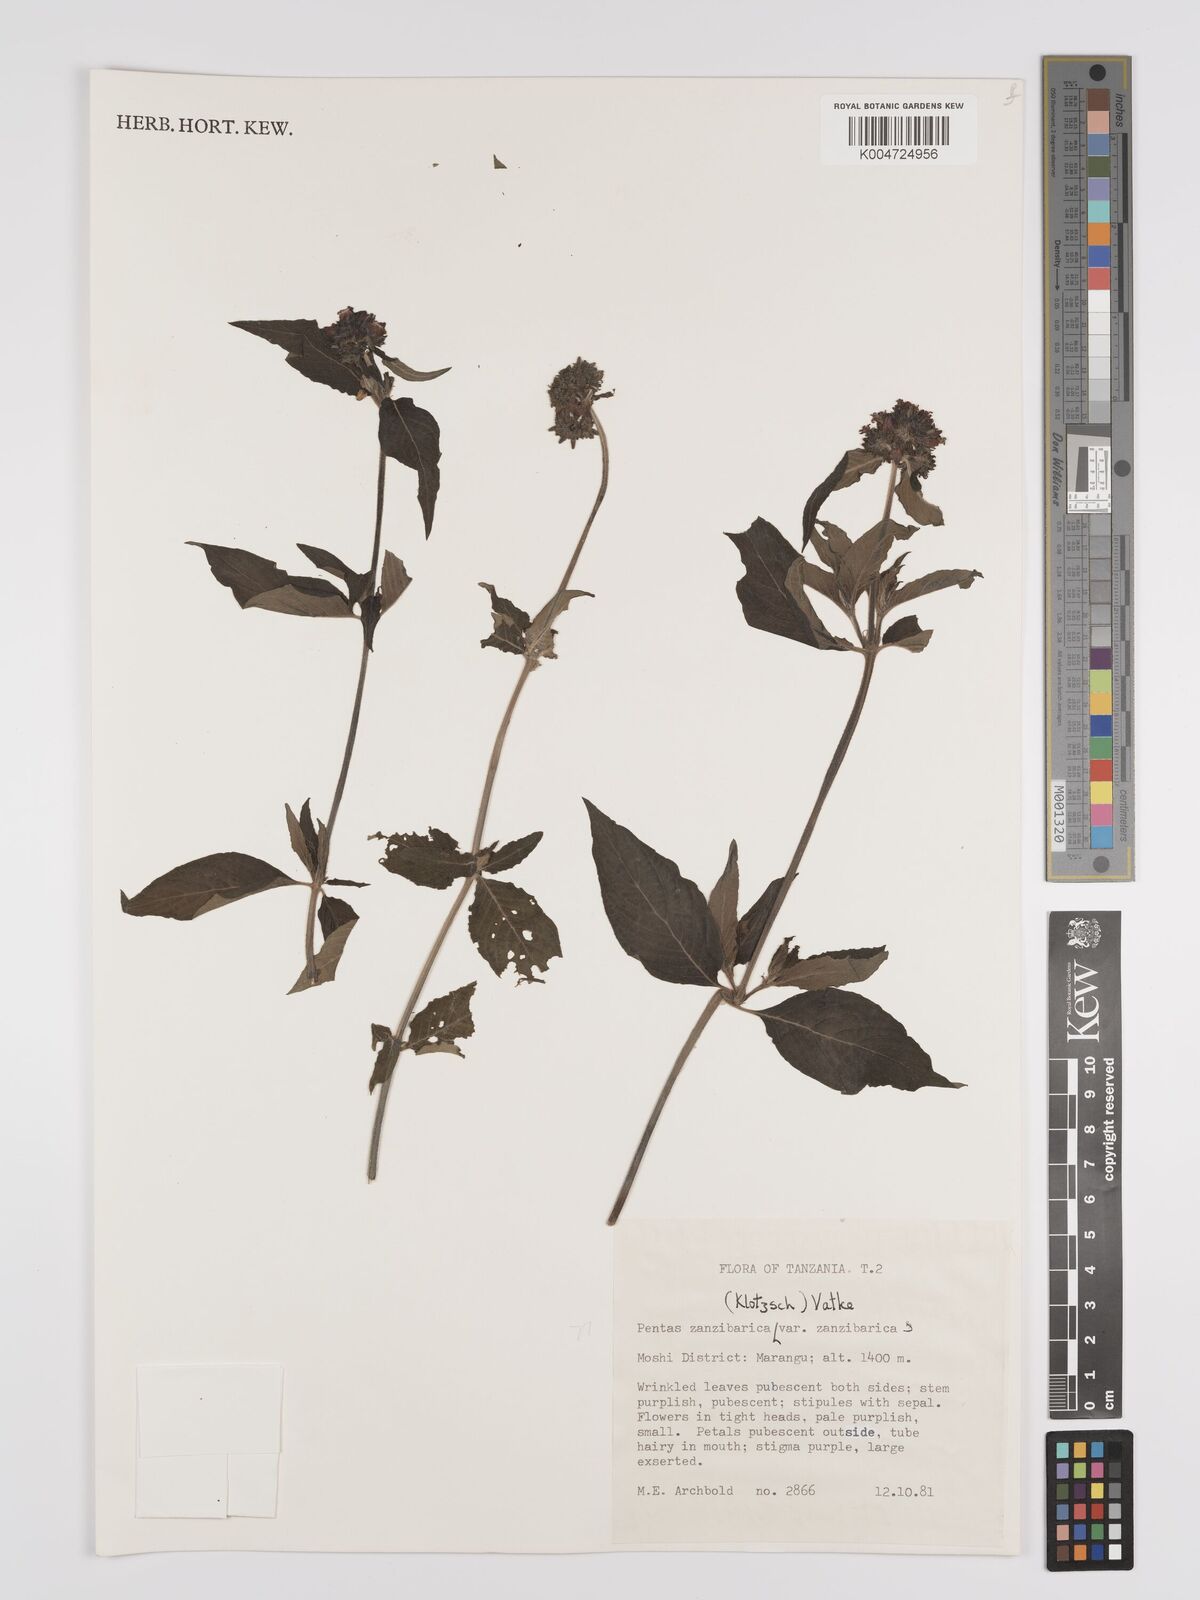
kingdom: Plantae
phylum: Tracheophyta
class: Magnoliopsida
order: Gentianales
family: Rubiaceae
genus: Pentas
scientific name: Pentas zanzibarica
